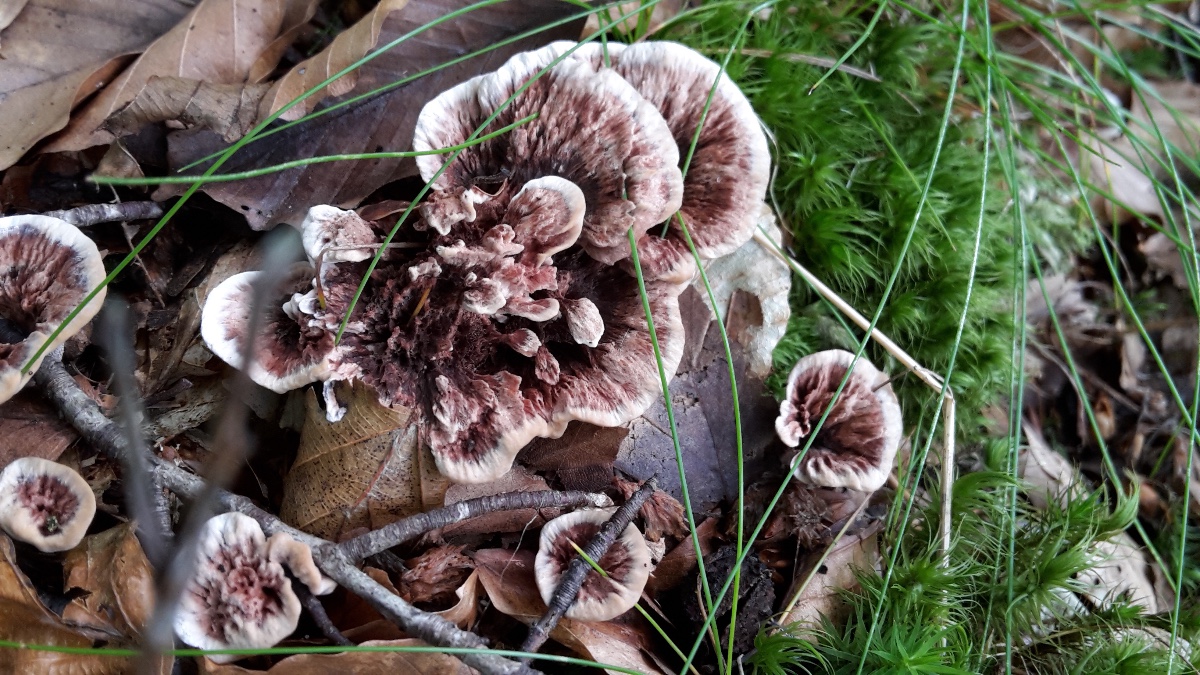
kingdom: Fungi
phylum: Basidiomycota
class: Agaricomycetes
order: Thelephorales
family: Bankeraceae
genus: Hydnellum
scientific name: Hydnellum concrescens
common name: bæltet korkpigsvamp
